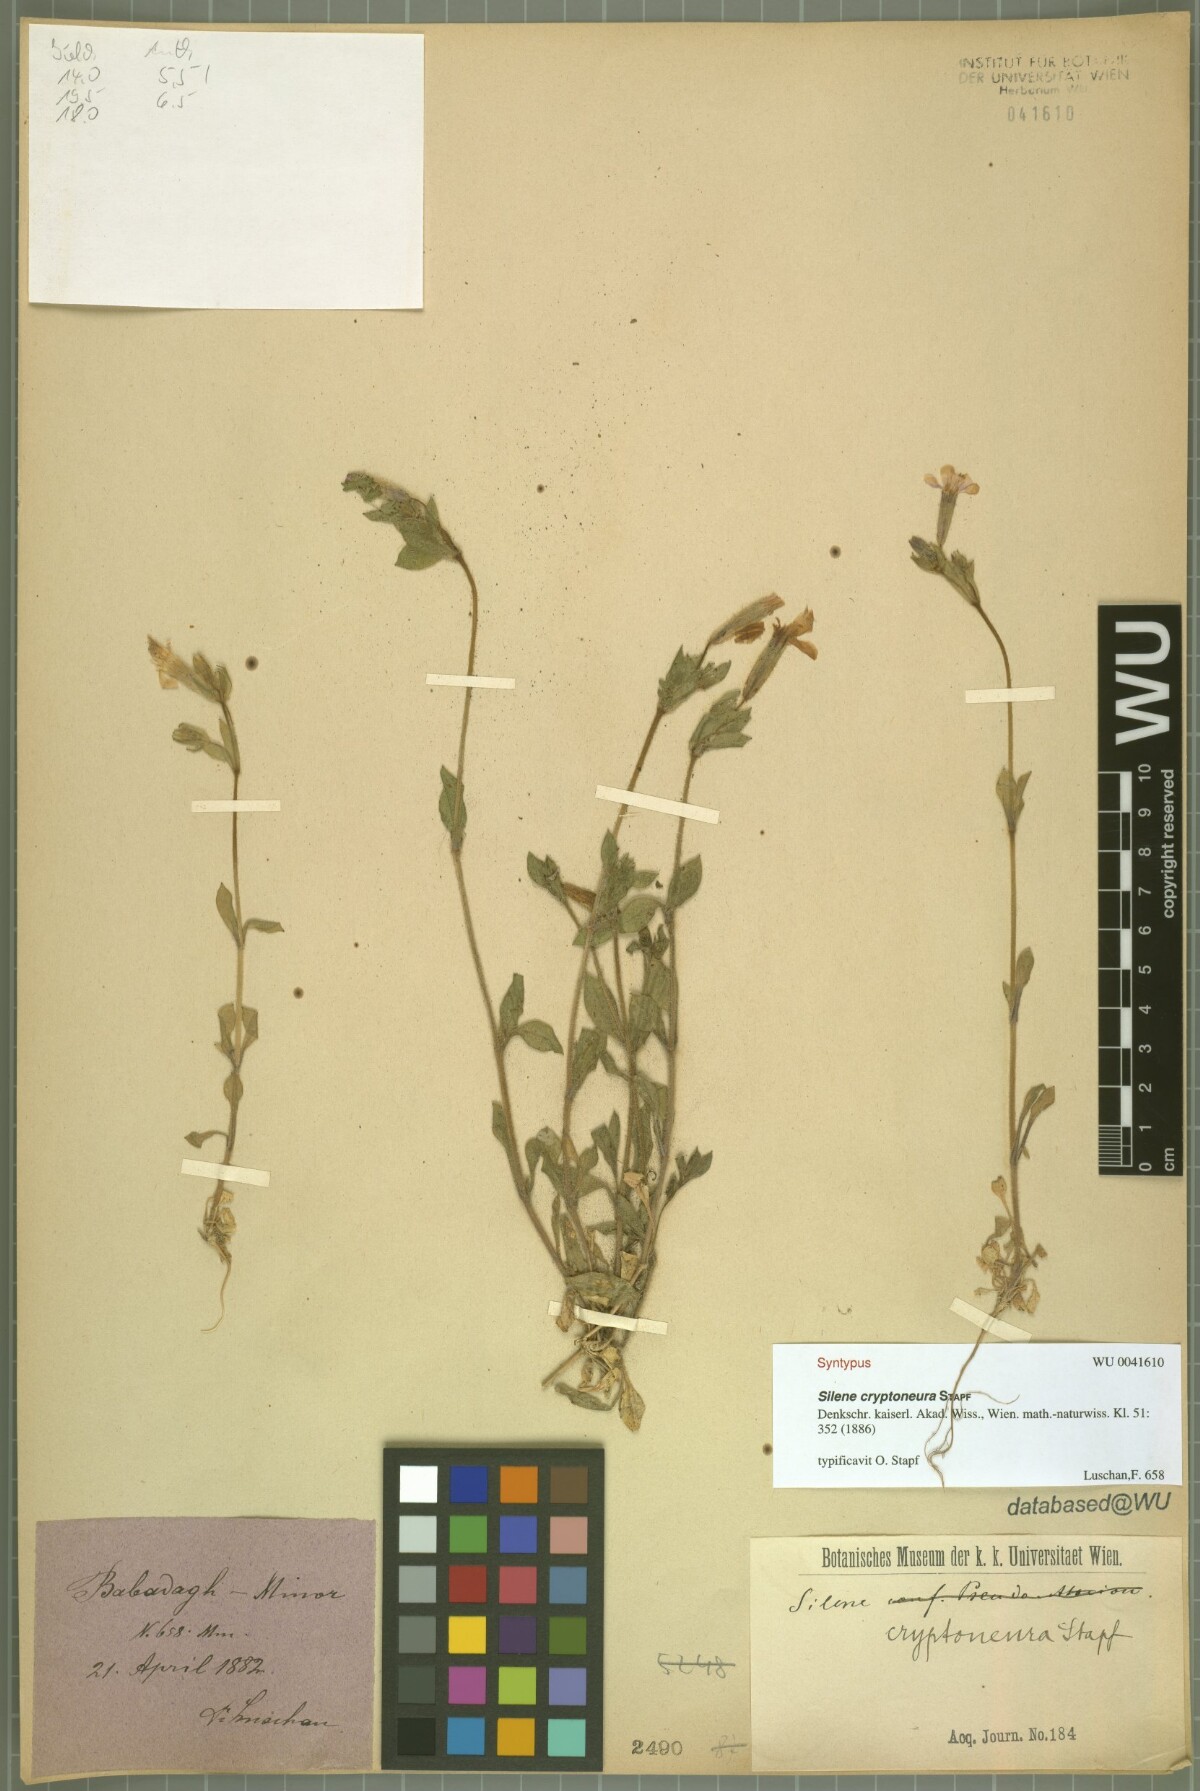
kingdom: Plantae
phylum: Tracheophyta
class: Magnoliopsida
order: Caryophyllales
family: Caryophyllaceae
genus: Silene
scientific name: Silene cryptoneura
